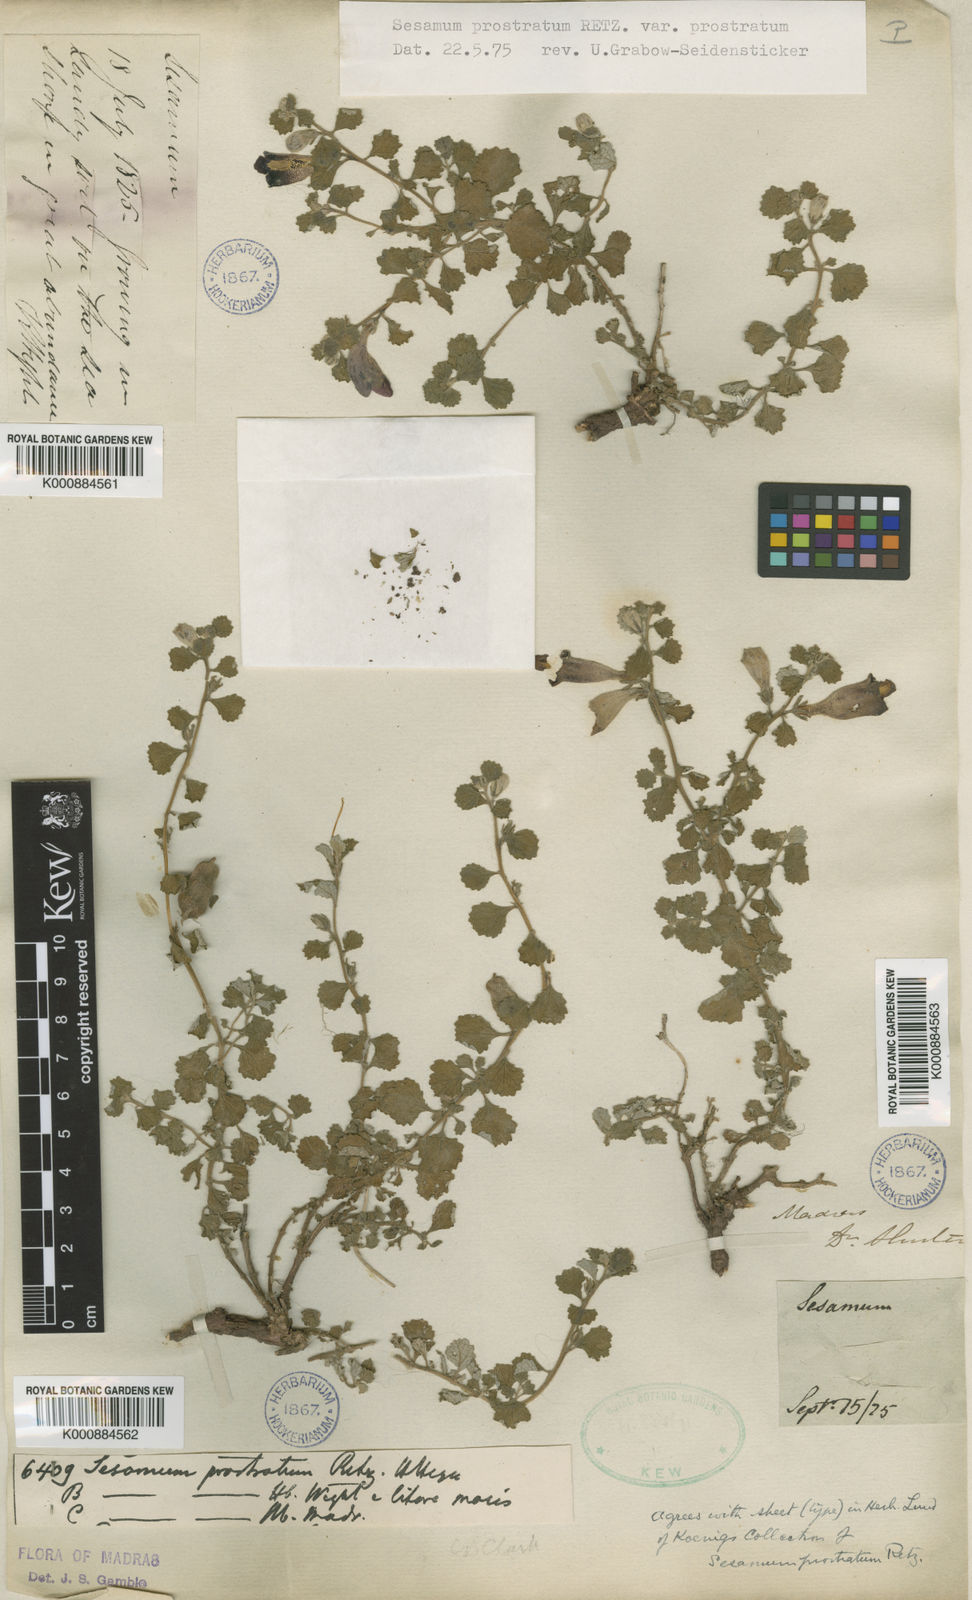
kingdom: Plantae
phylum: Tracheophyta
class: Magnoliopsida
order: Lamiales
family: Pedaliaceae
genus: Sesamum
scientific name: Sesamum prostratum
